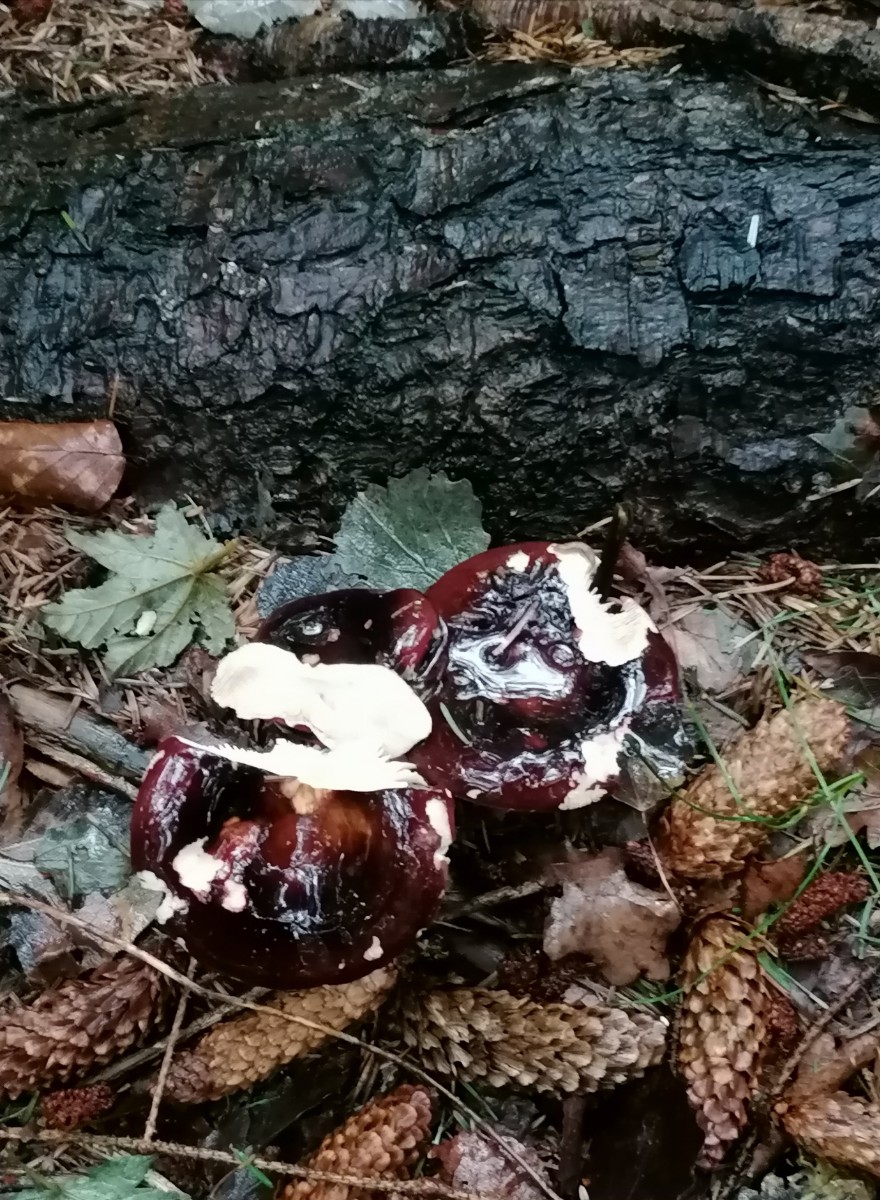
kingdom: Fungi
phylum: Basidiomycota
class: Agaricomycetes
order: Russulales
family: Russulaceae
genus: Russula
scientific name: Russula xerampelina
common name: hummer-skørhat
